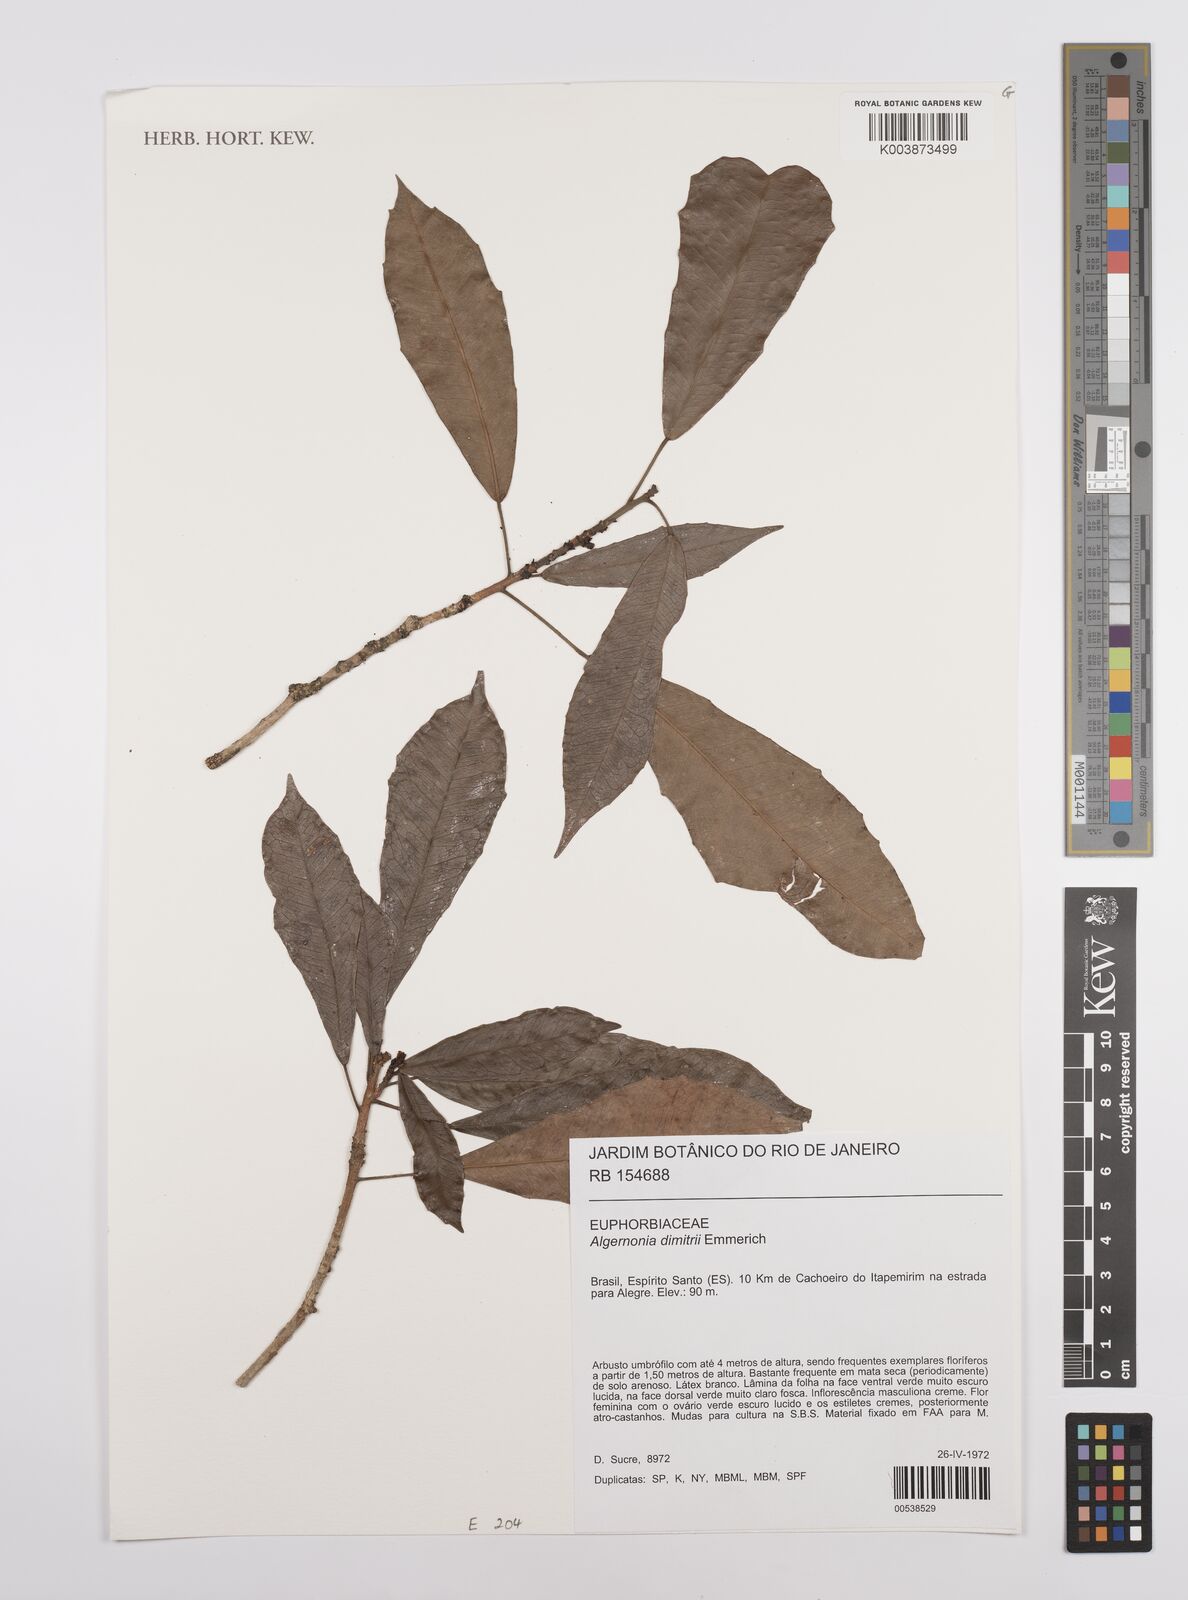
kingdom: Plantae
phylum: Tracheophyta
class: Magnoliopsida
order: Malpighiales
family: Euphorbiaceae
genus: Algernonia
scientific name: Algernonia dimitrii
